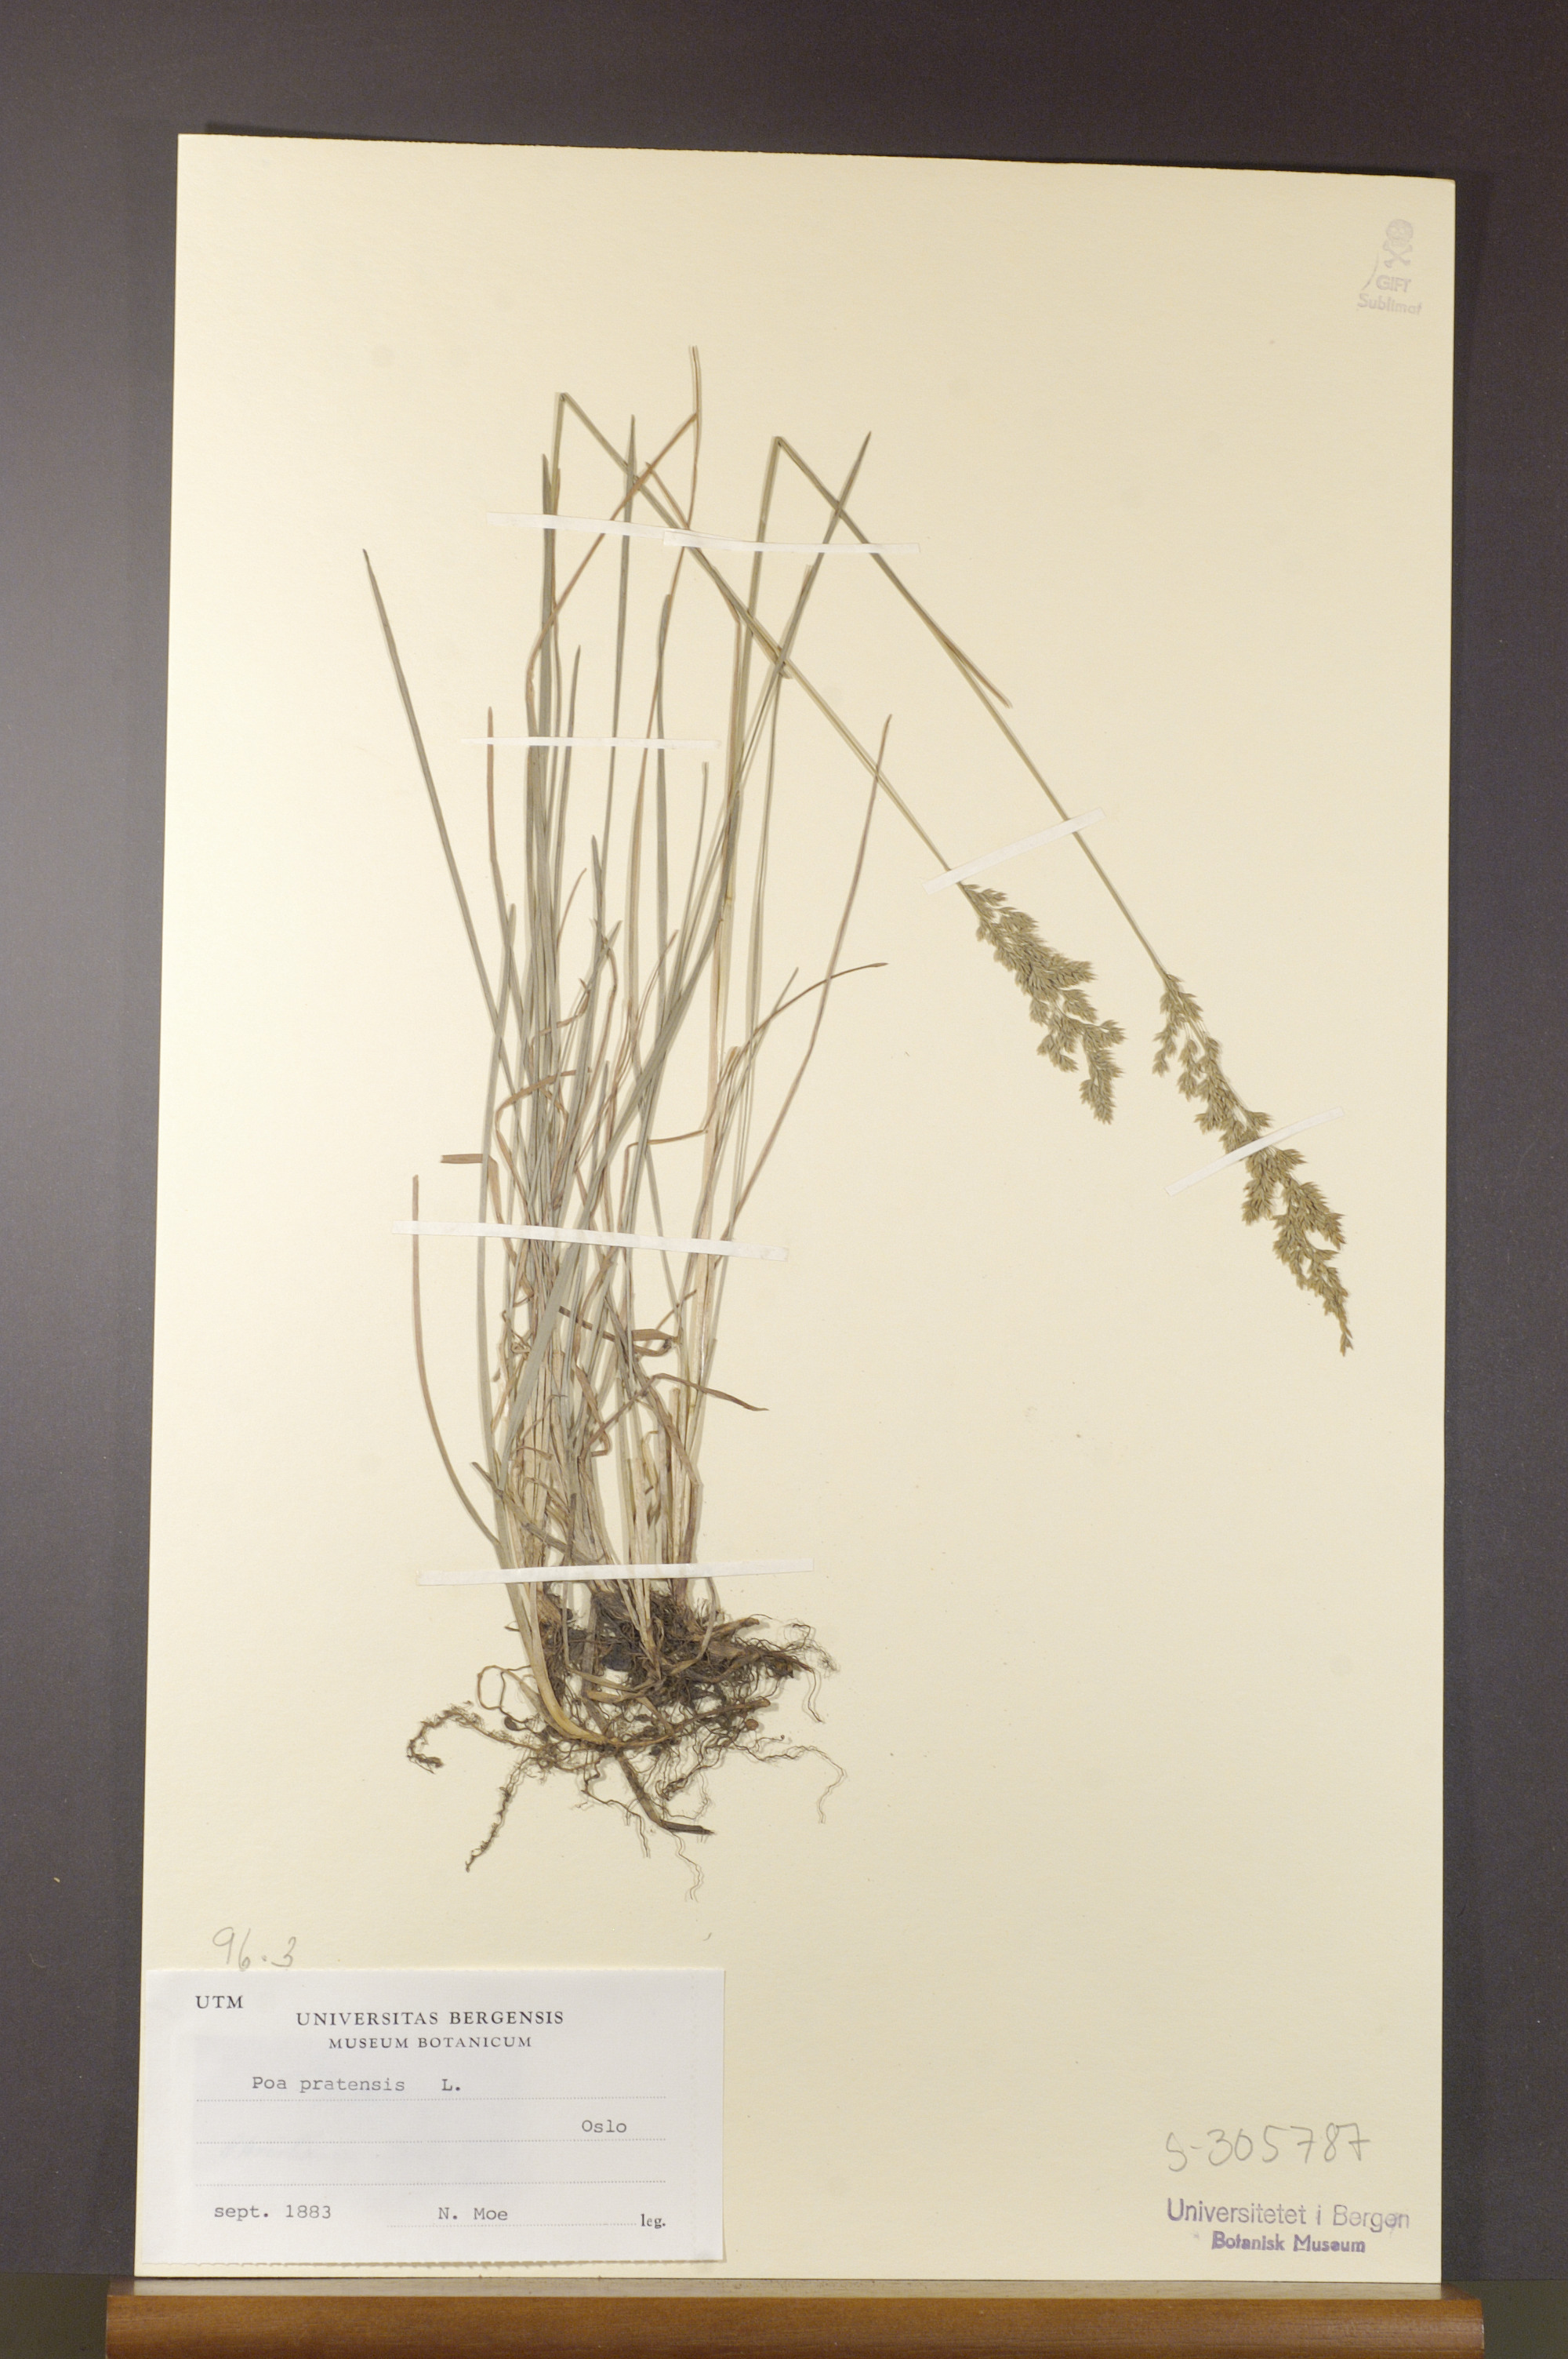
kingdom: Plantae
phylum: Tracheophyta
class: Liliopsida
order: Poales
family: Poaceae
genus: Poa
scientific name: Poa pratensis
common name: Kentucky bluegrass
